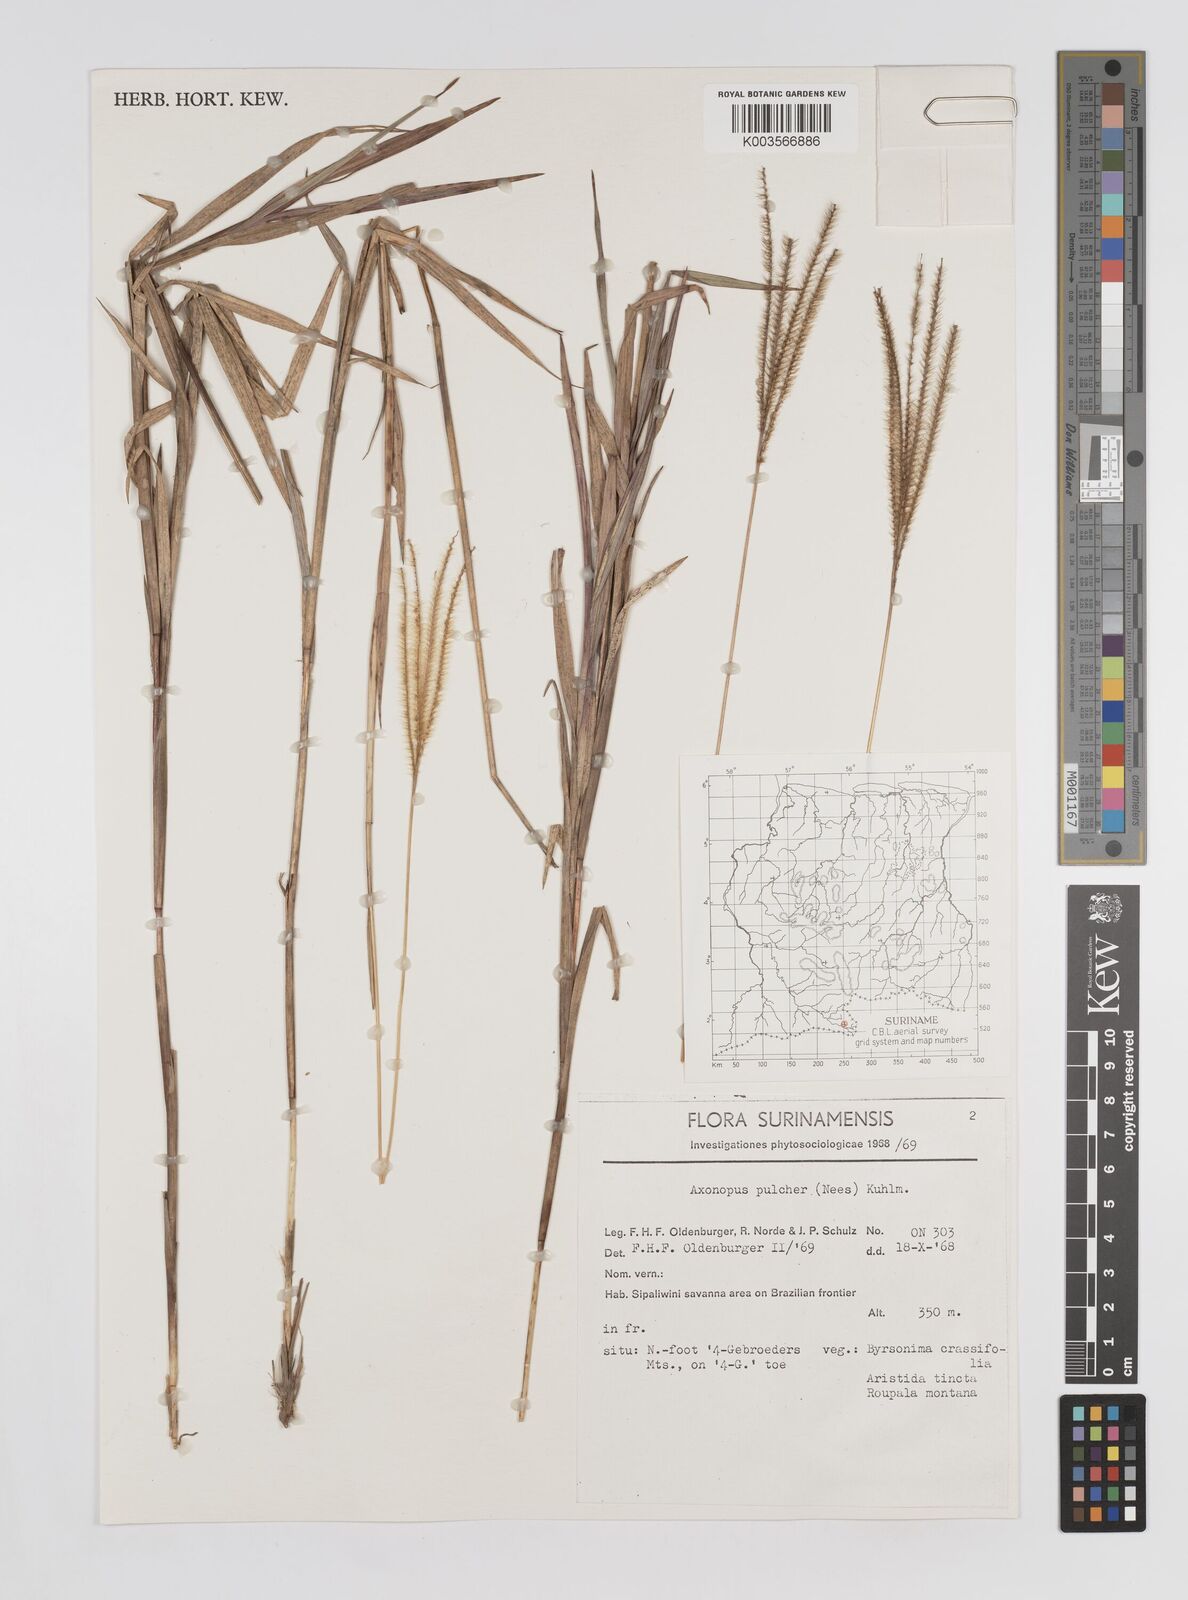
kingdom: Plantae
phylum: Tracheophyta
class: Liliopsida
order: Poales
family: Poaceae
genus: Axonopus
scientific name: Axonopus aureus
